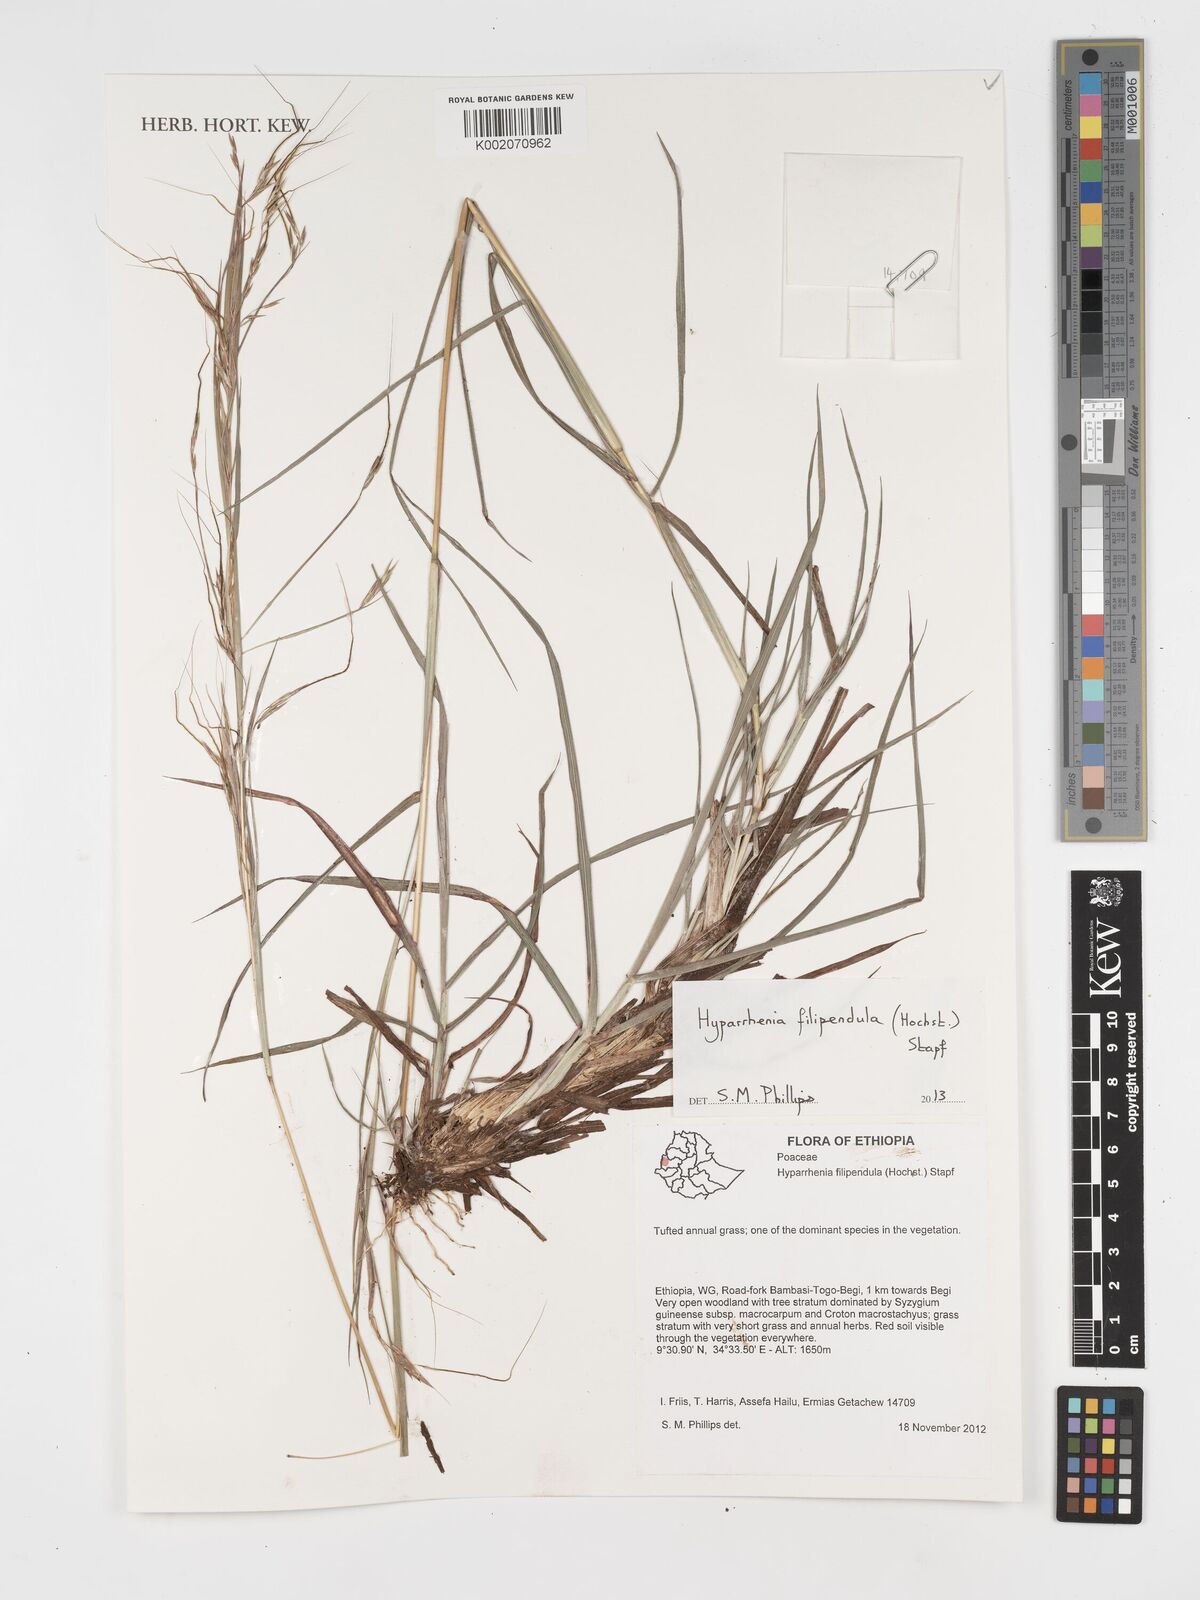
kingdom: Plantae
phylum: Tracheophyta
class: Liliopsida
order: Poales
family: Poaceae
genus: Hyparrhenia
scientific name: Hyparrhenia filipendula
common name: Tambookie grass
